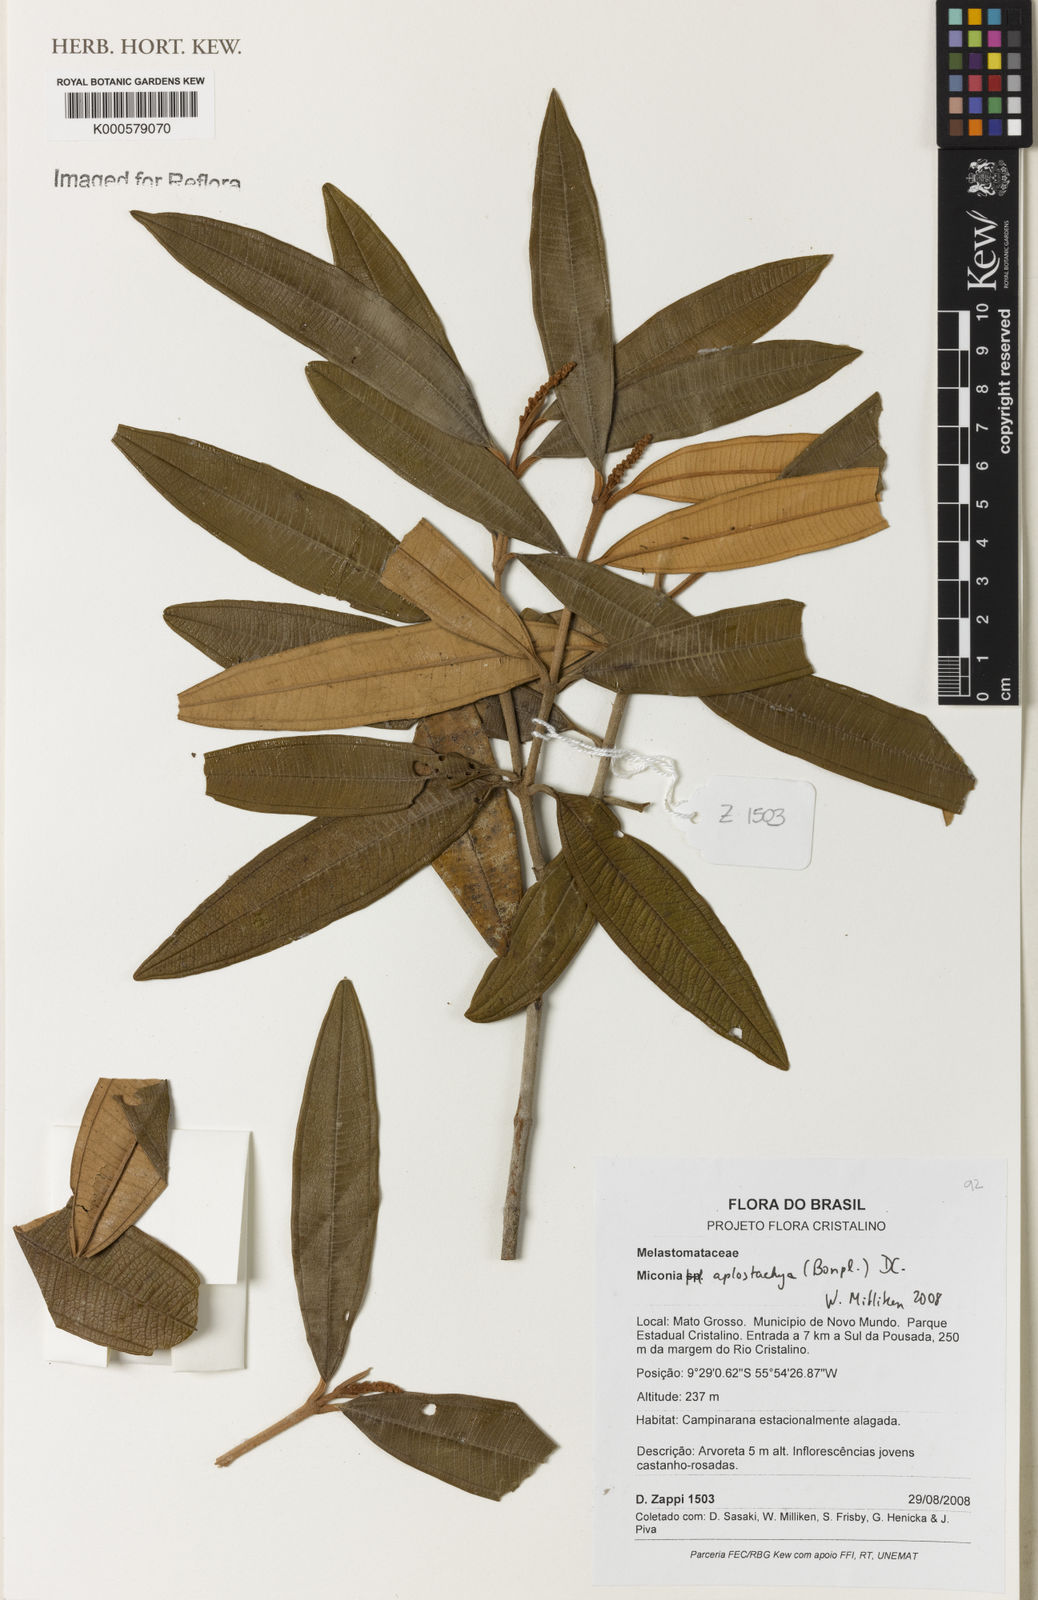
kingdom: Plantae
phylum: Tracheophyta
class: Magnoliopsida
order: Myrtales
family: Melastomataceae
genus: Miconia
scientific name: Miconia aplostachya
